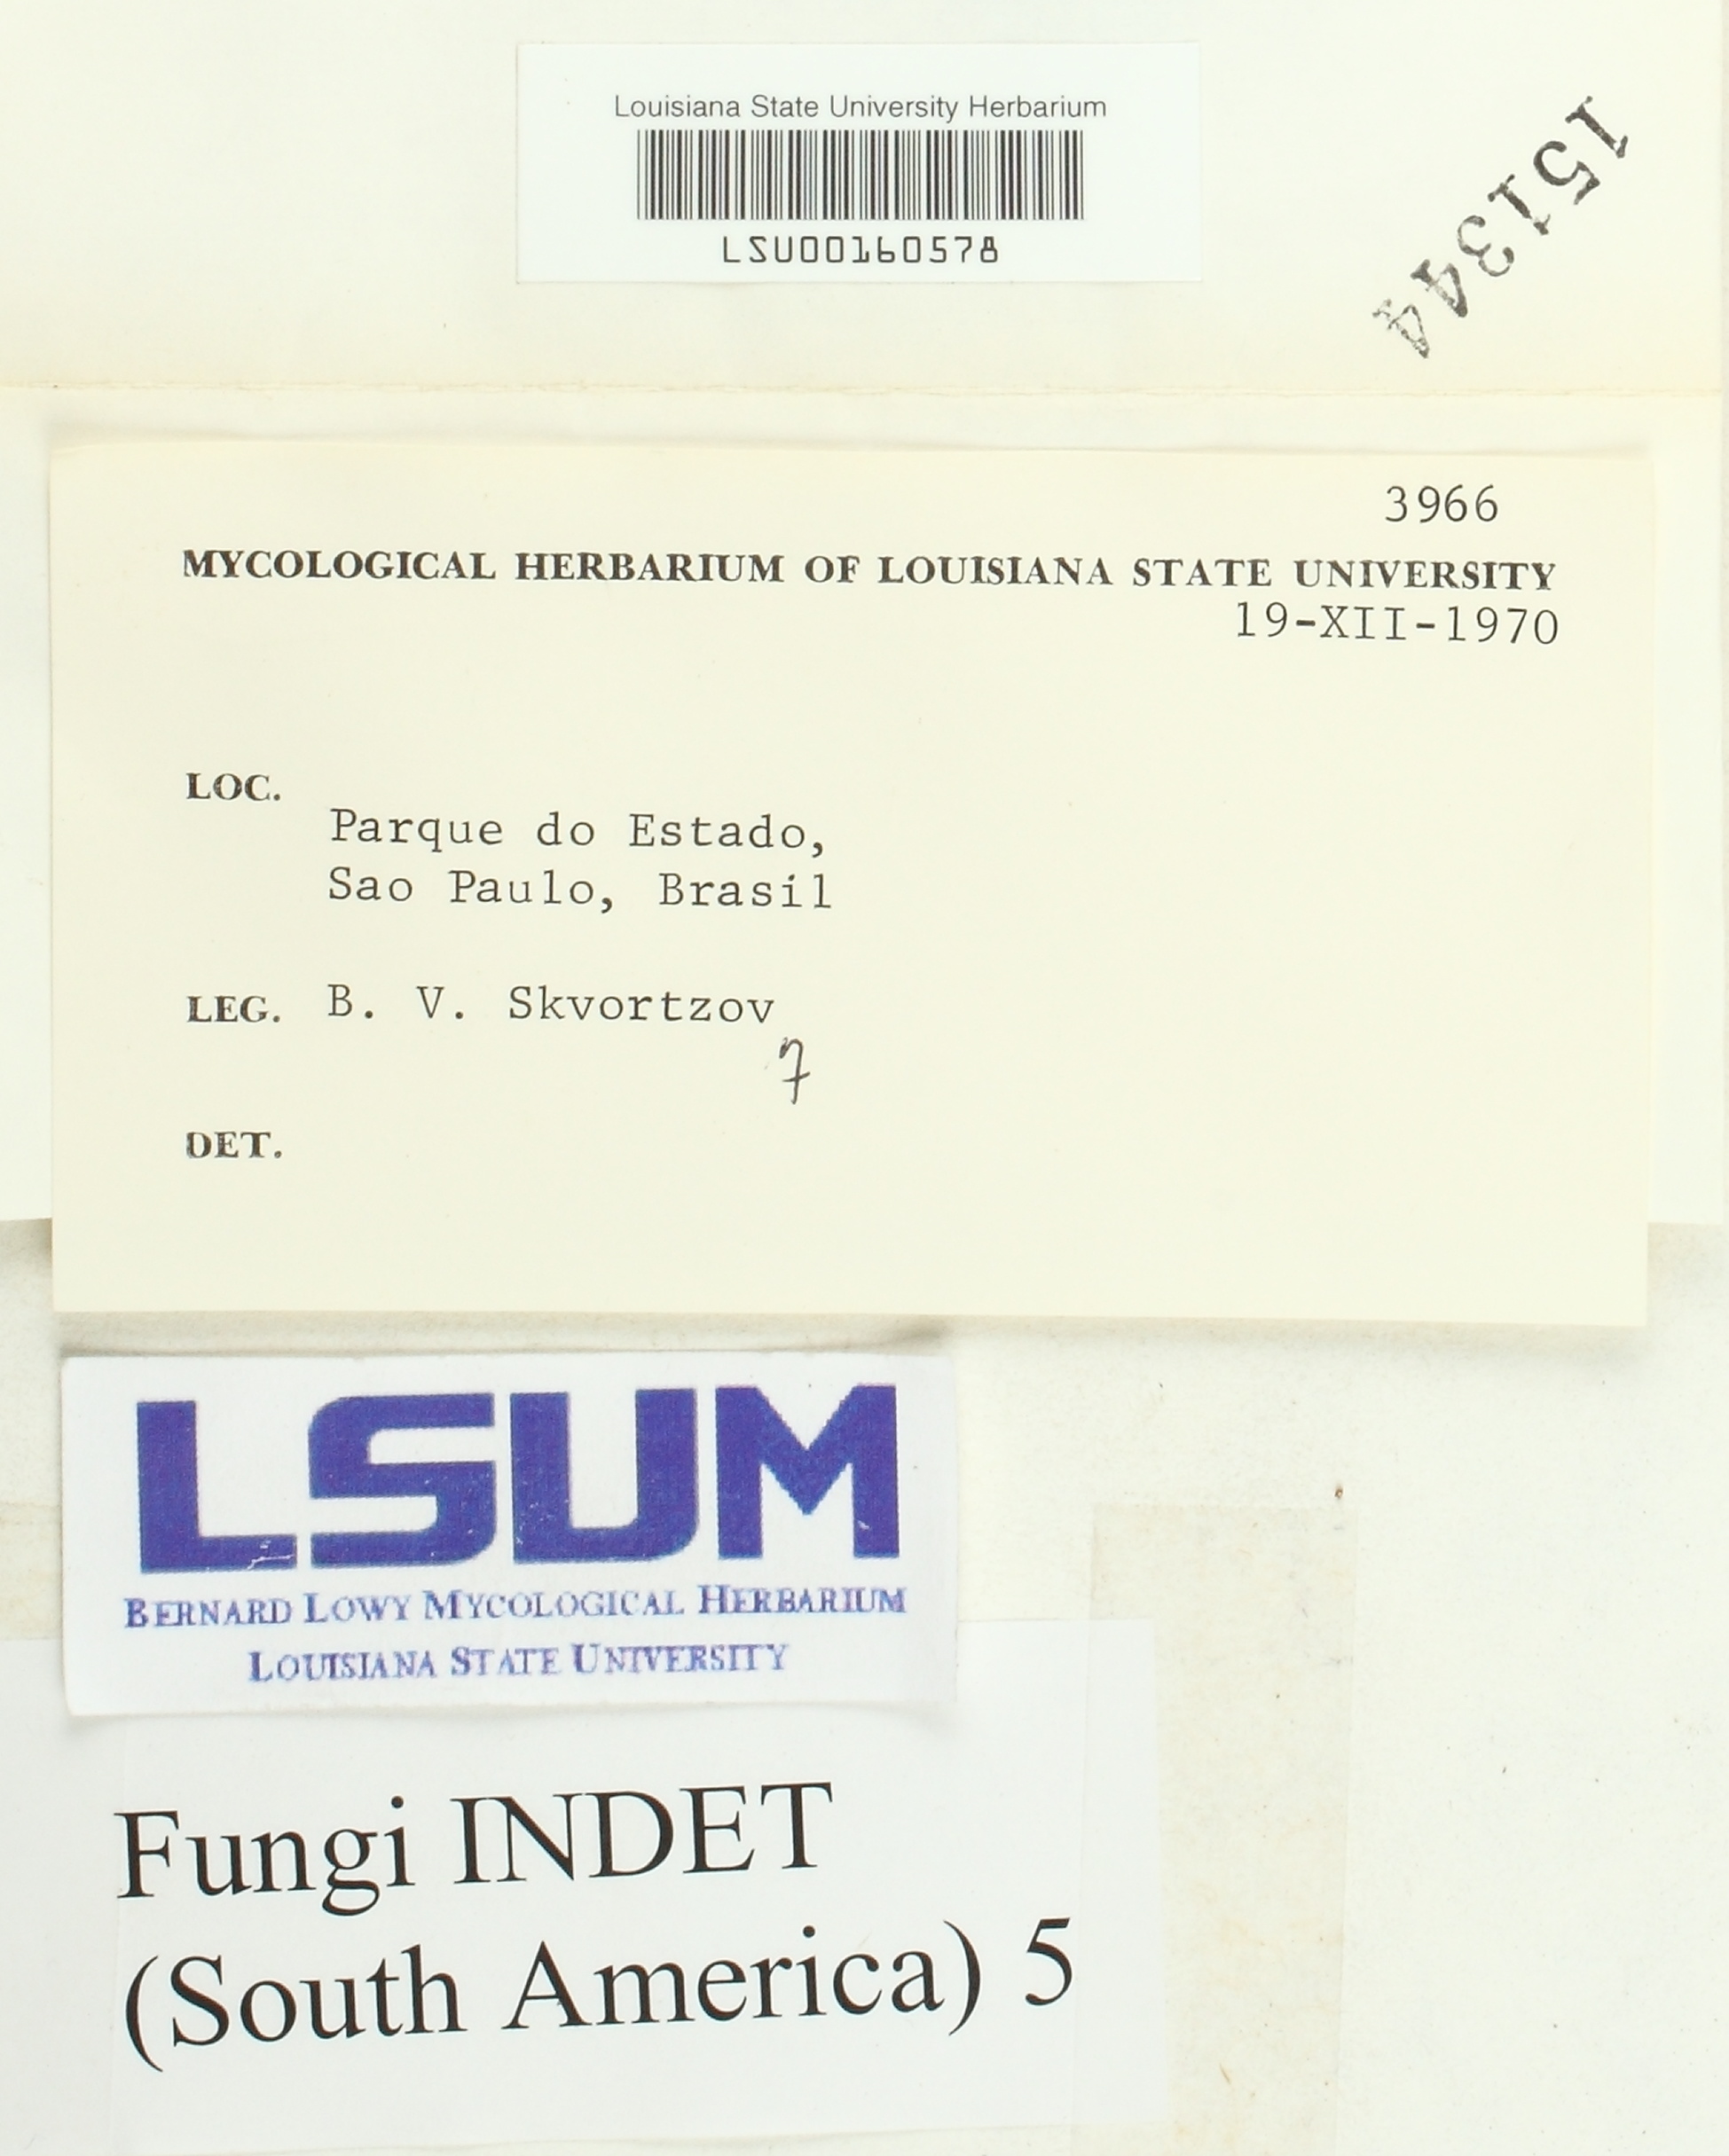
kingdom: Fungi
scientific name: Fungi
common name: Fungi
